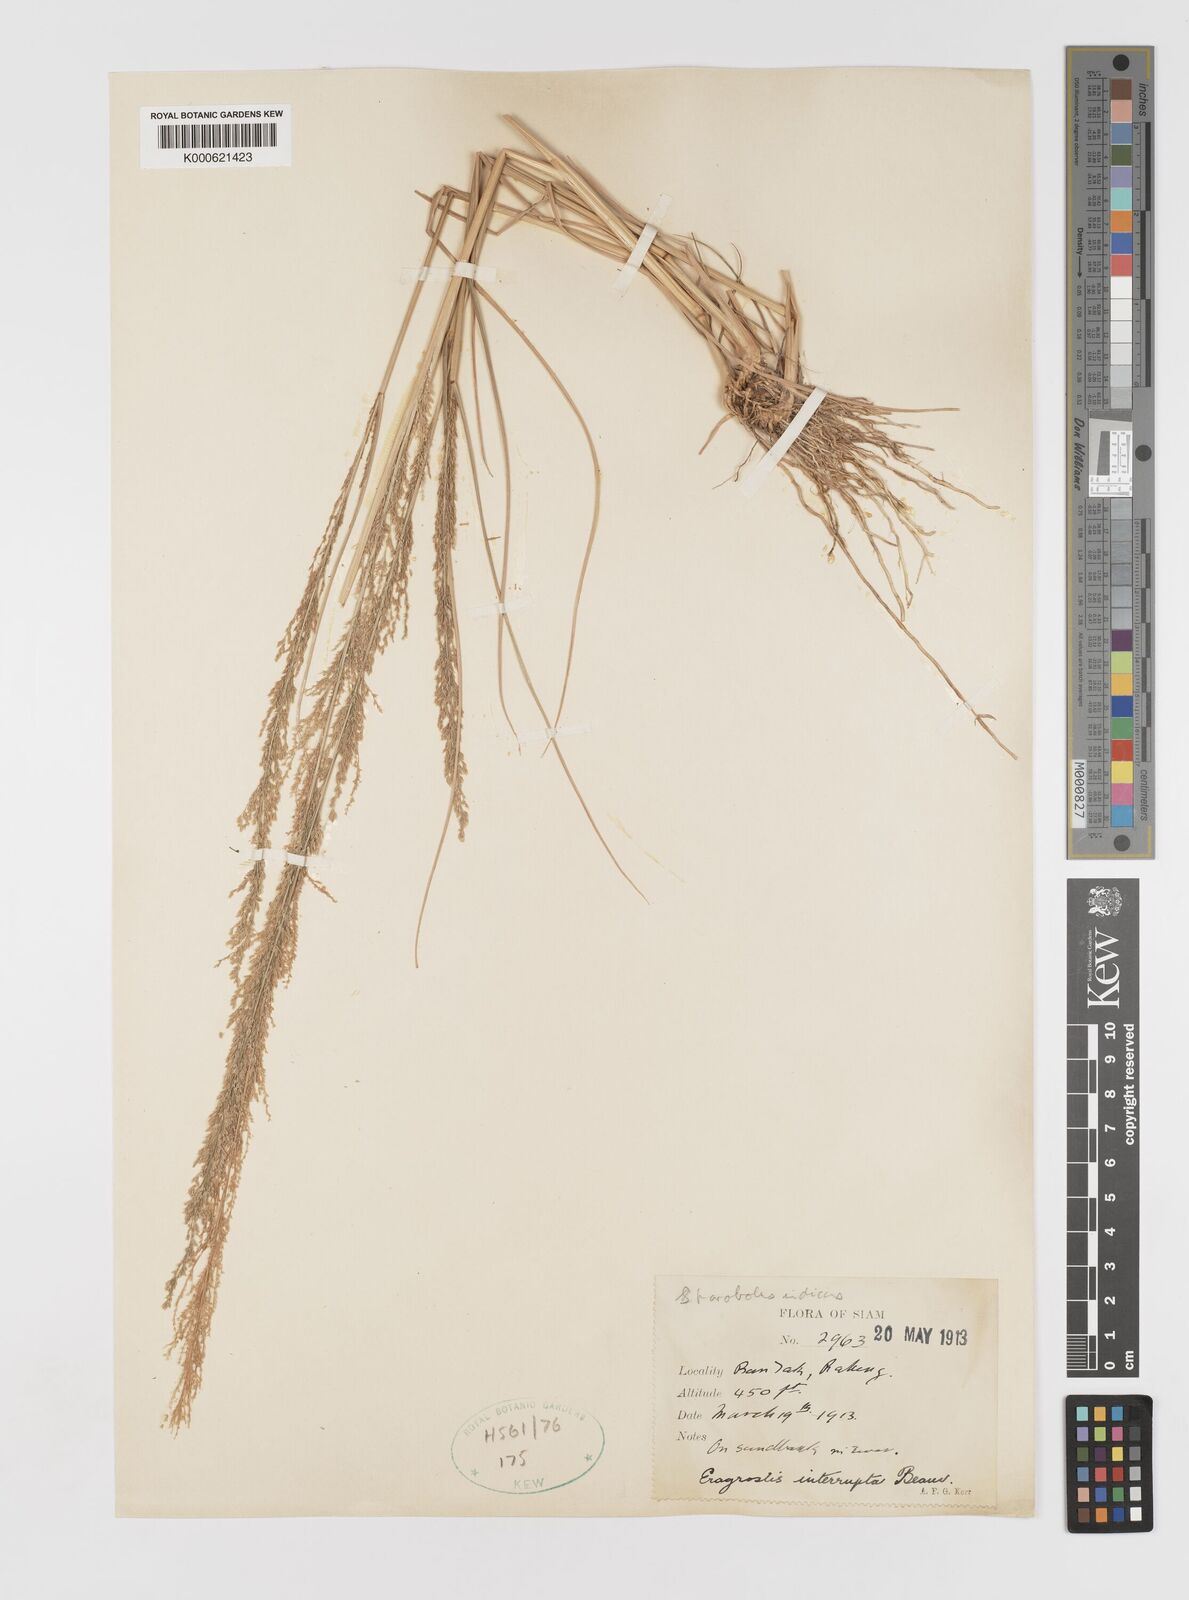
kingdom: Plantae
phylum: Tracheophyta
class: Liliopsida
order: Poales
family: Poaceae
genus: Eragrostis
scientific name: Eragrostis japonica
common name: Pond lovegrass
